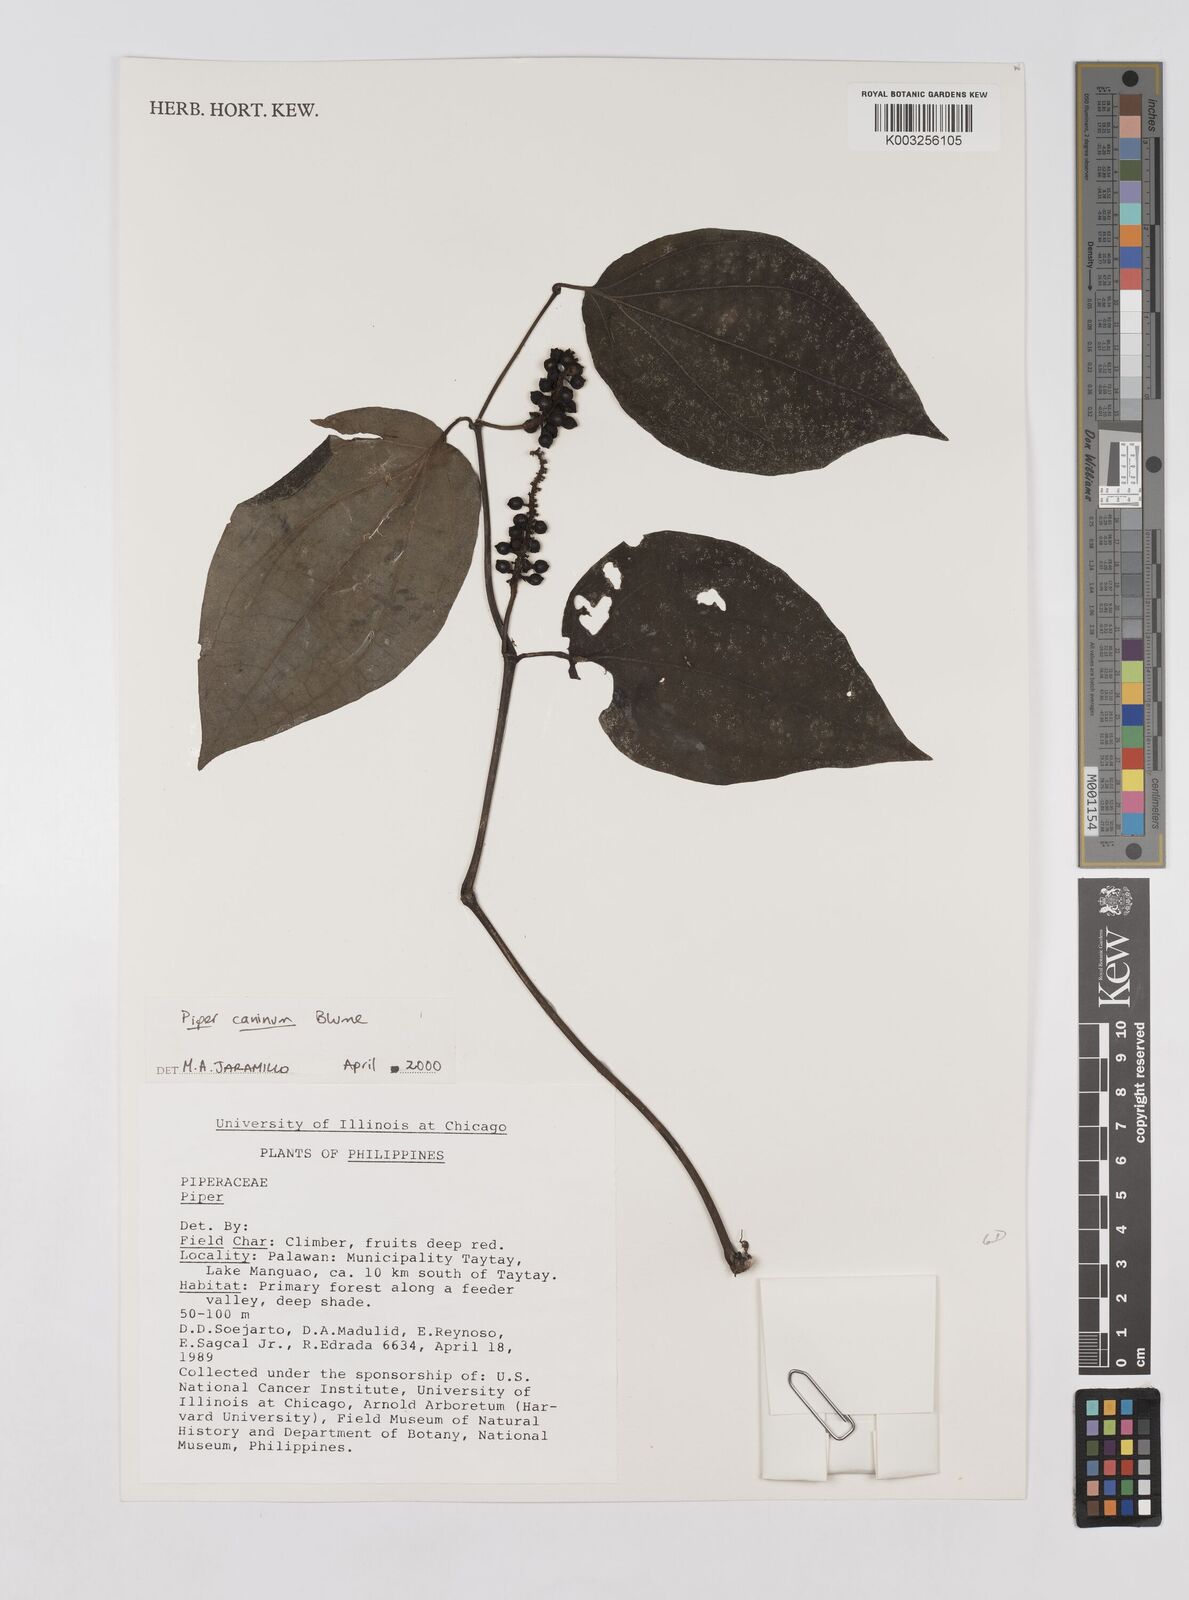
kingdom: Plantae
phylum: Tracheophyta
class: Magnoliopsida
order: Piperales
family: Piperaceae
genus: Piper
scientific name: Piper lanatum
